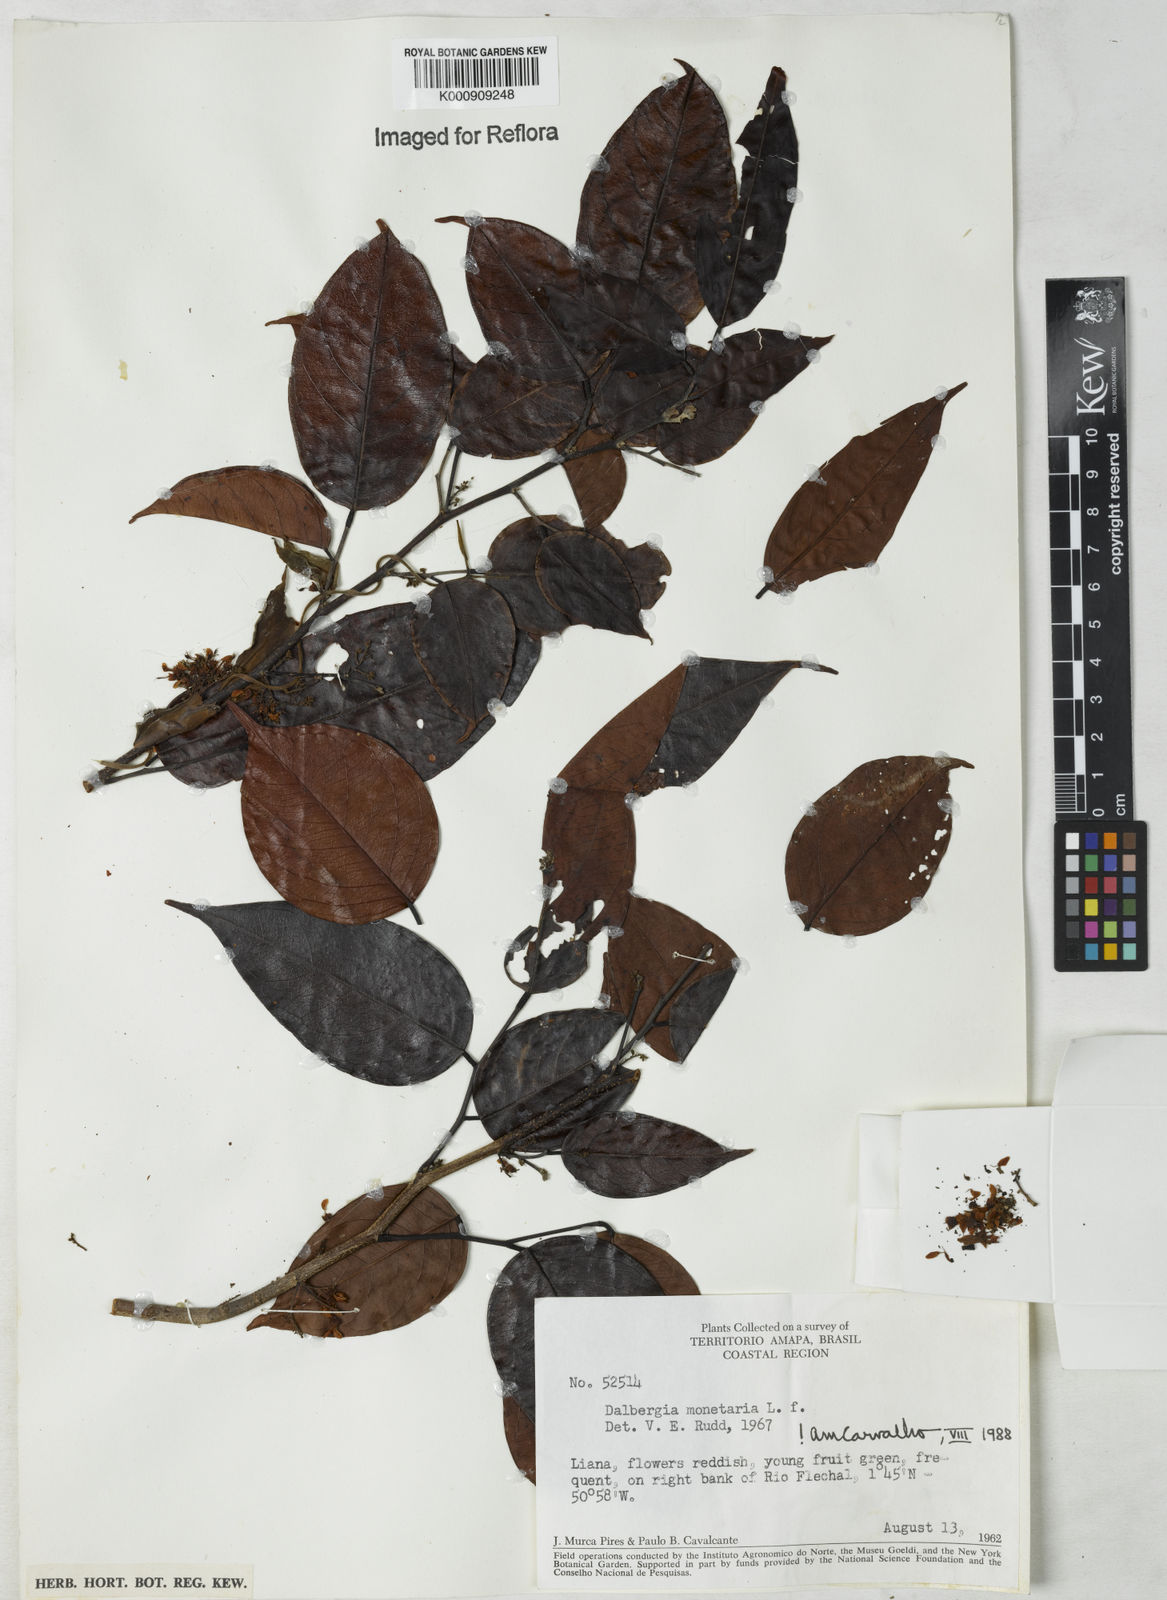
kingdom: Plantae
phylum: Tracheophyta
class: Magnoliopsida
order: Fabales
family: Fabaceae
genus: Dalbergia
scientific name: Dalbergia ovalis
